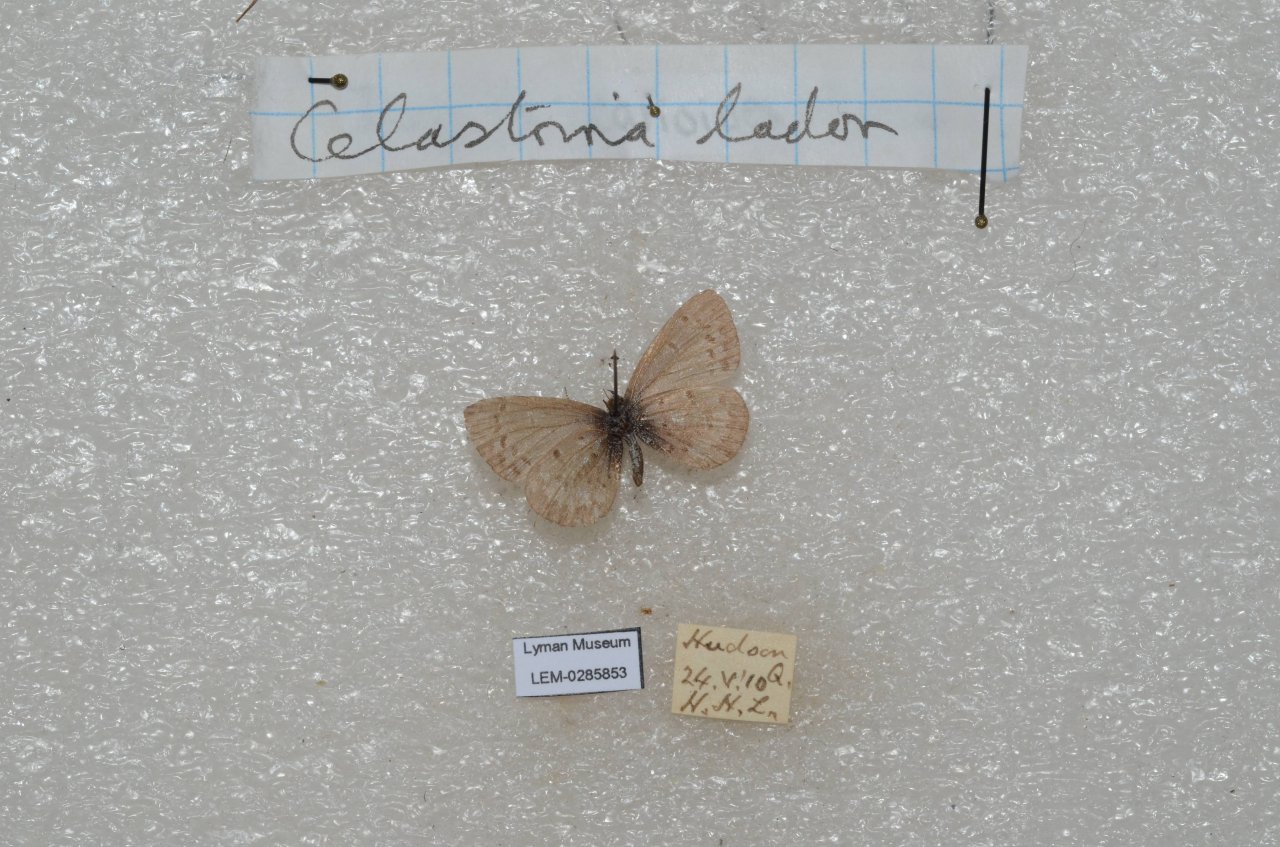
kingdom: Animalia
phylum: Arthropoda
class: Insecta
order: Lepidoptera
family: Lycaenidae
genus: Celastrina
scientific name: Celastrina lucia
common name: Northern Spring Azure
